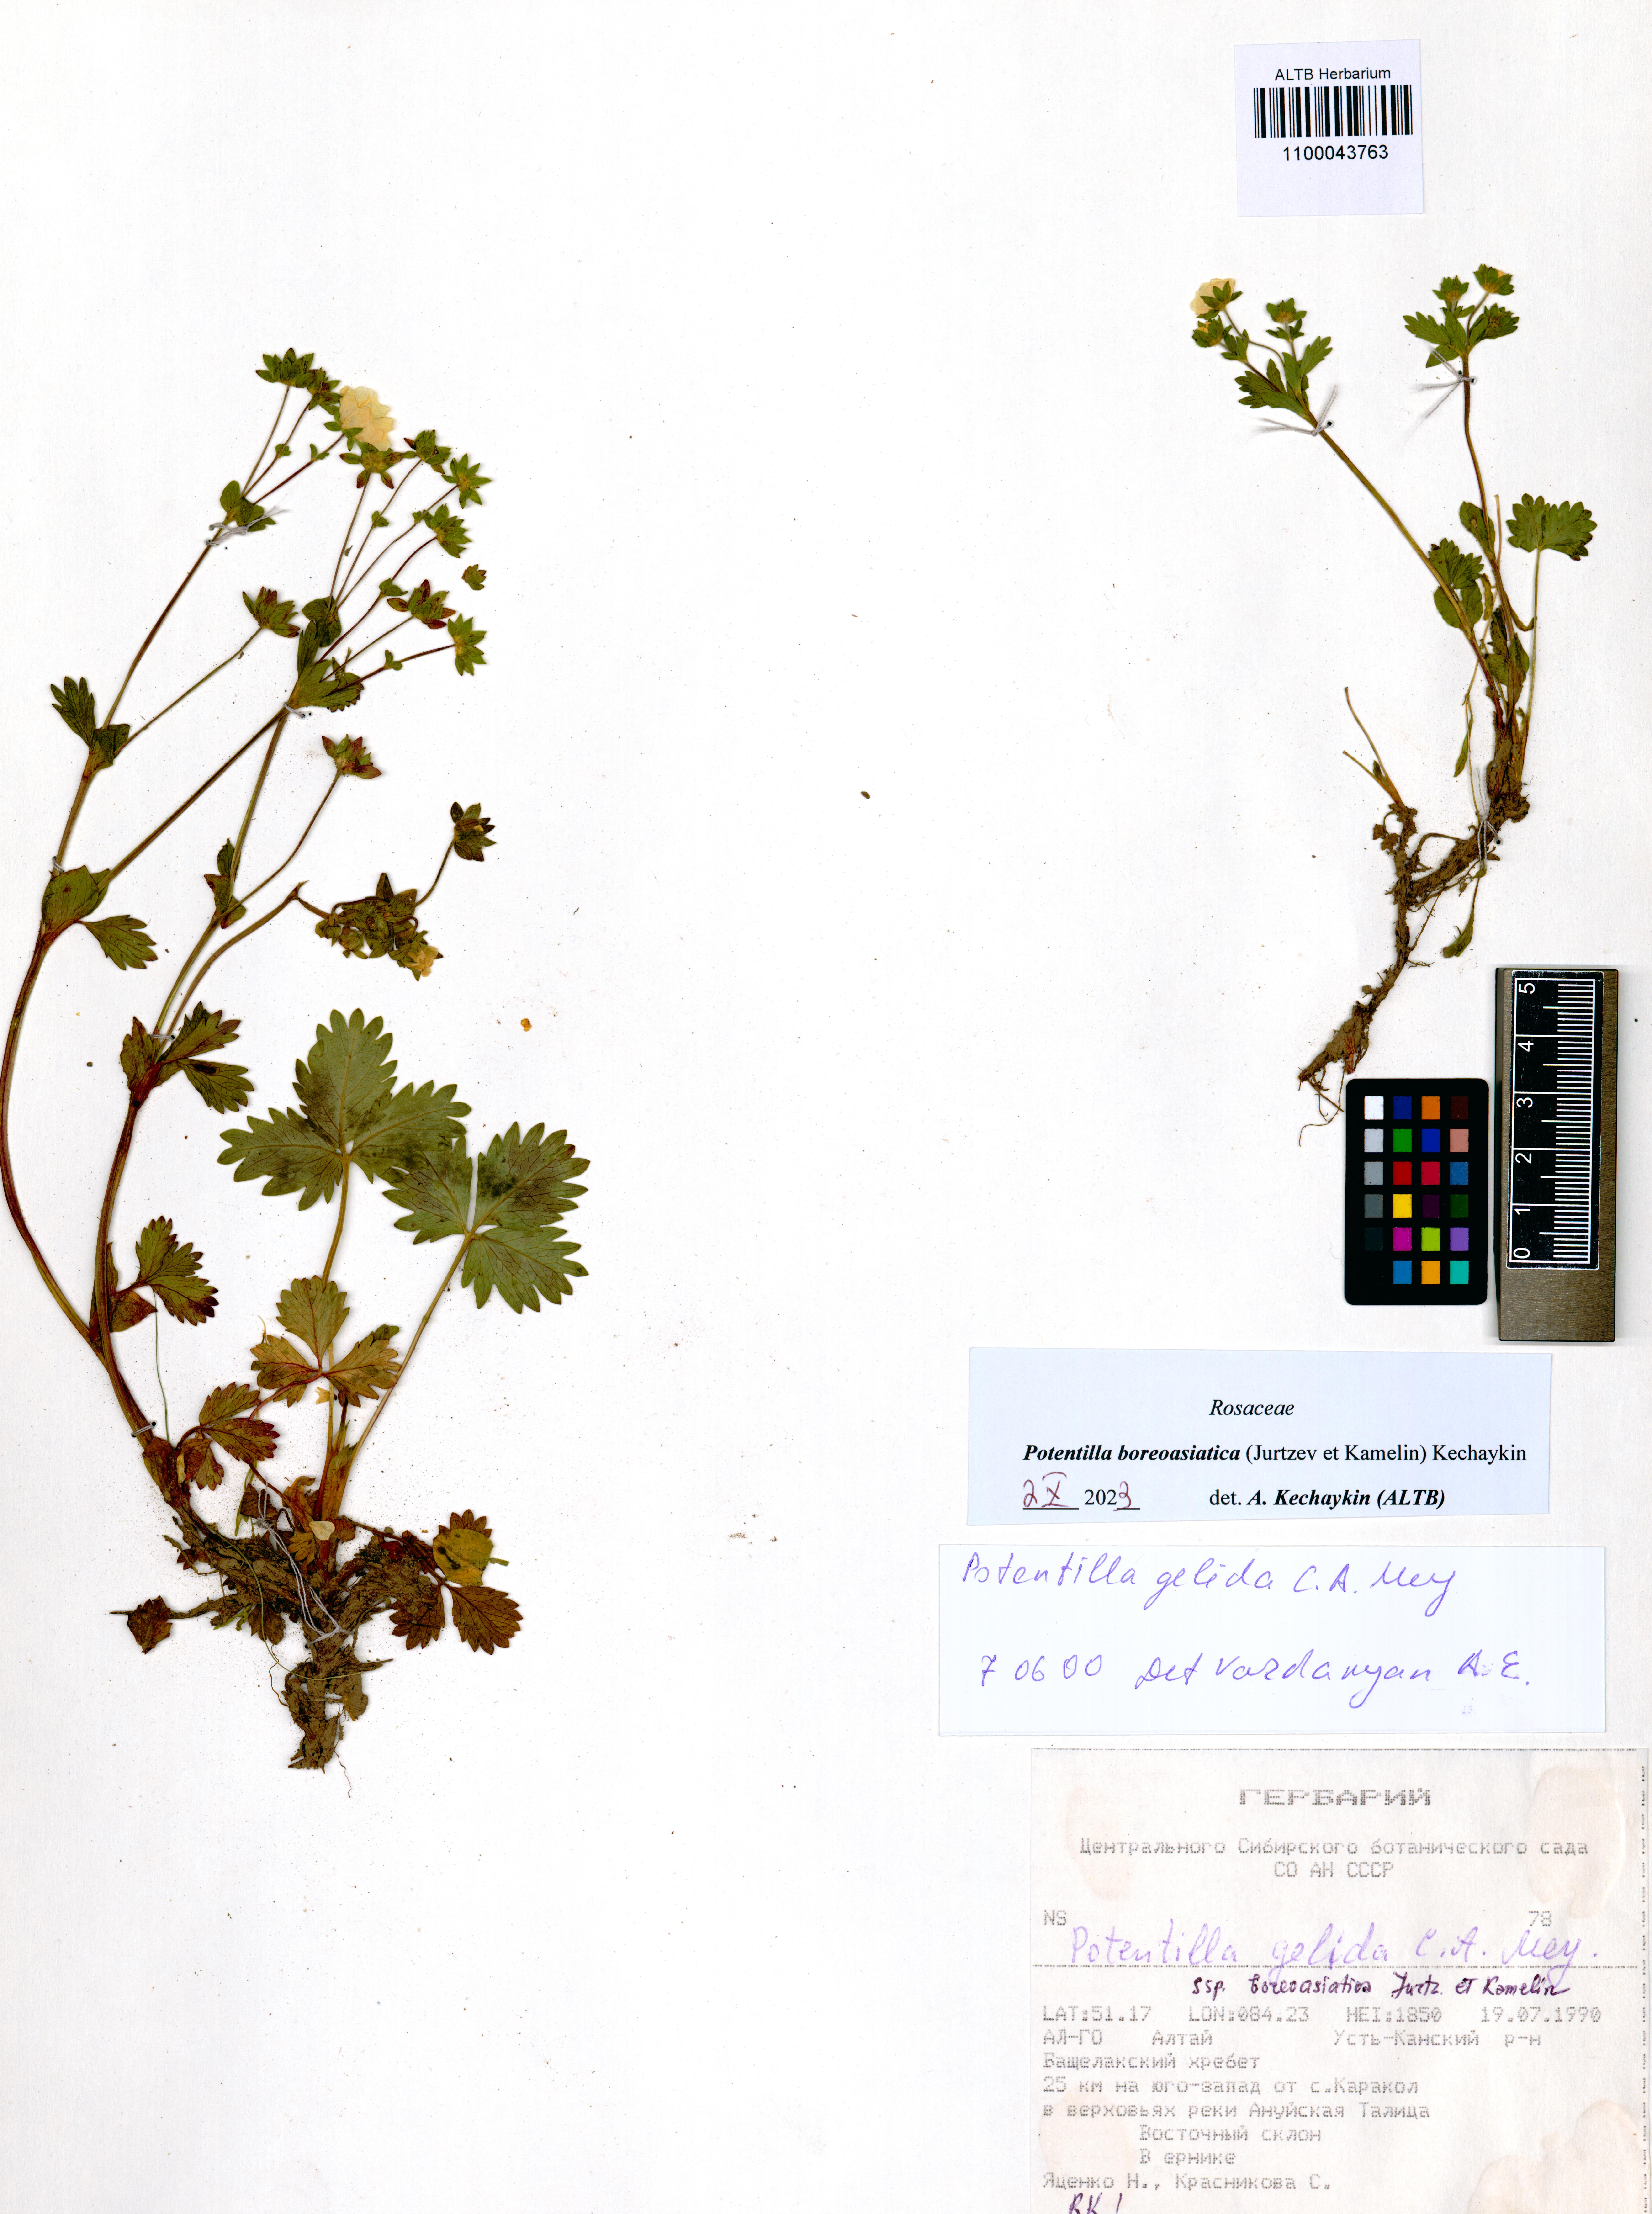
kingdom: Plantae
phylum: Tracheophyta
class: Magnoliopsida
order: Rosales
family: Rosaceae
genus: Potentilla
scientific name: Potentilla
